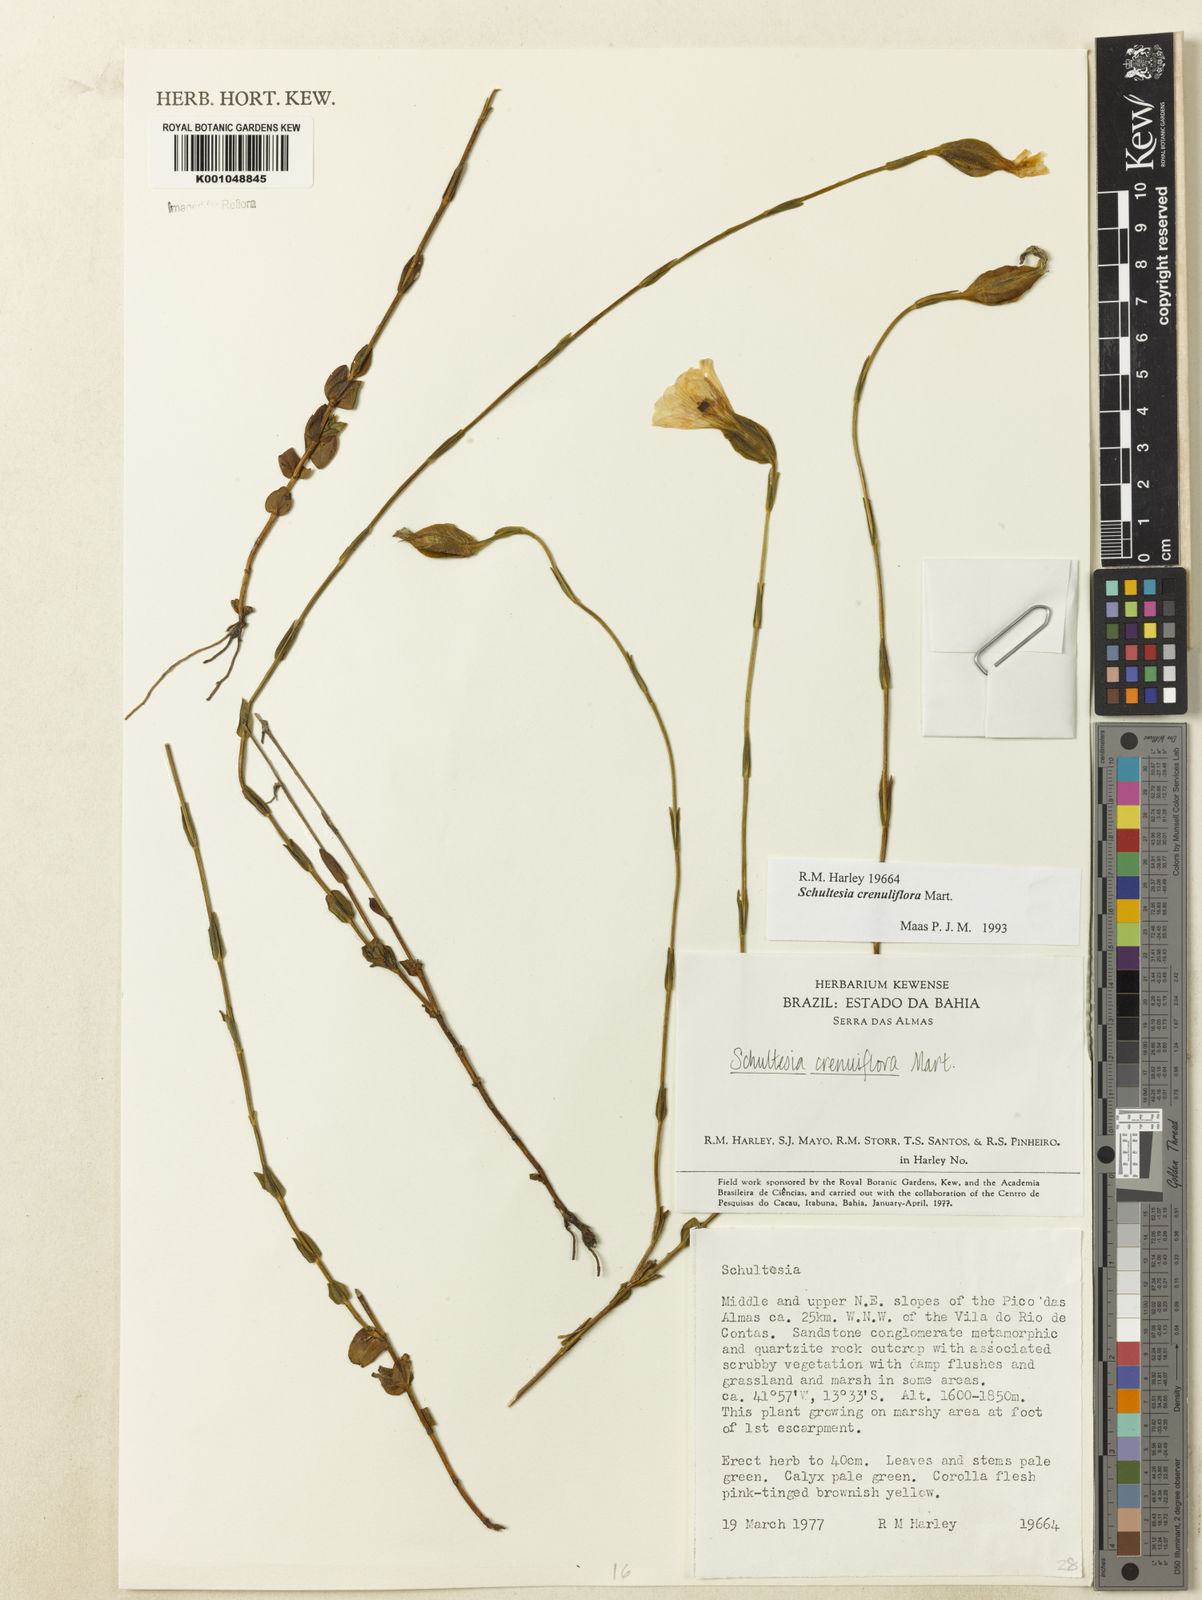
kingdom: Plantae
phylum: Tracheophyta
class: Magnoliopsida
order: Gentianales
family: Gentianaceae
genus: Schultesia
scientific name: Schultesia crenuliflora
